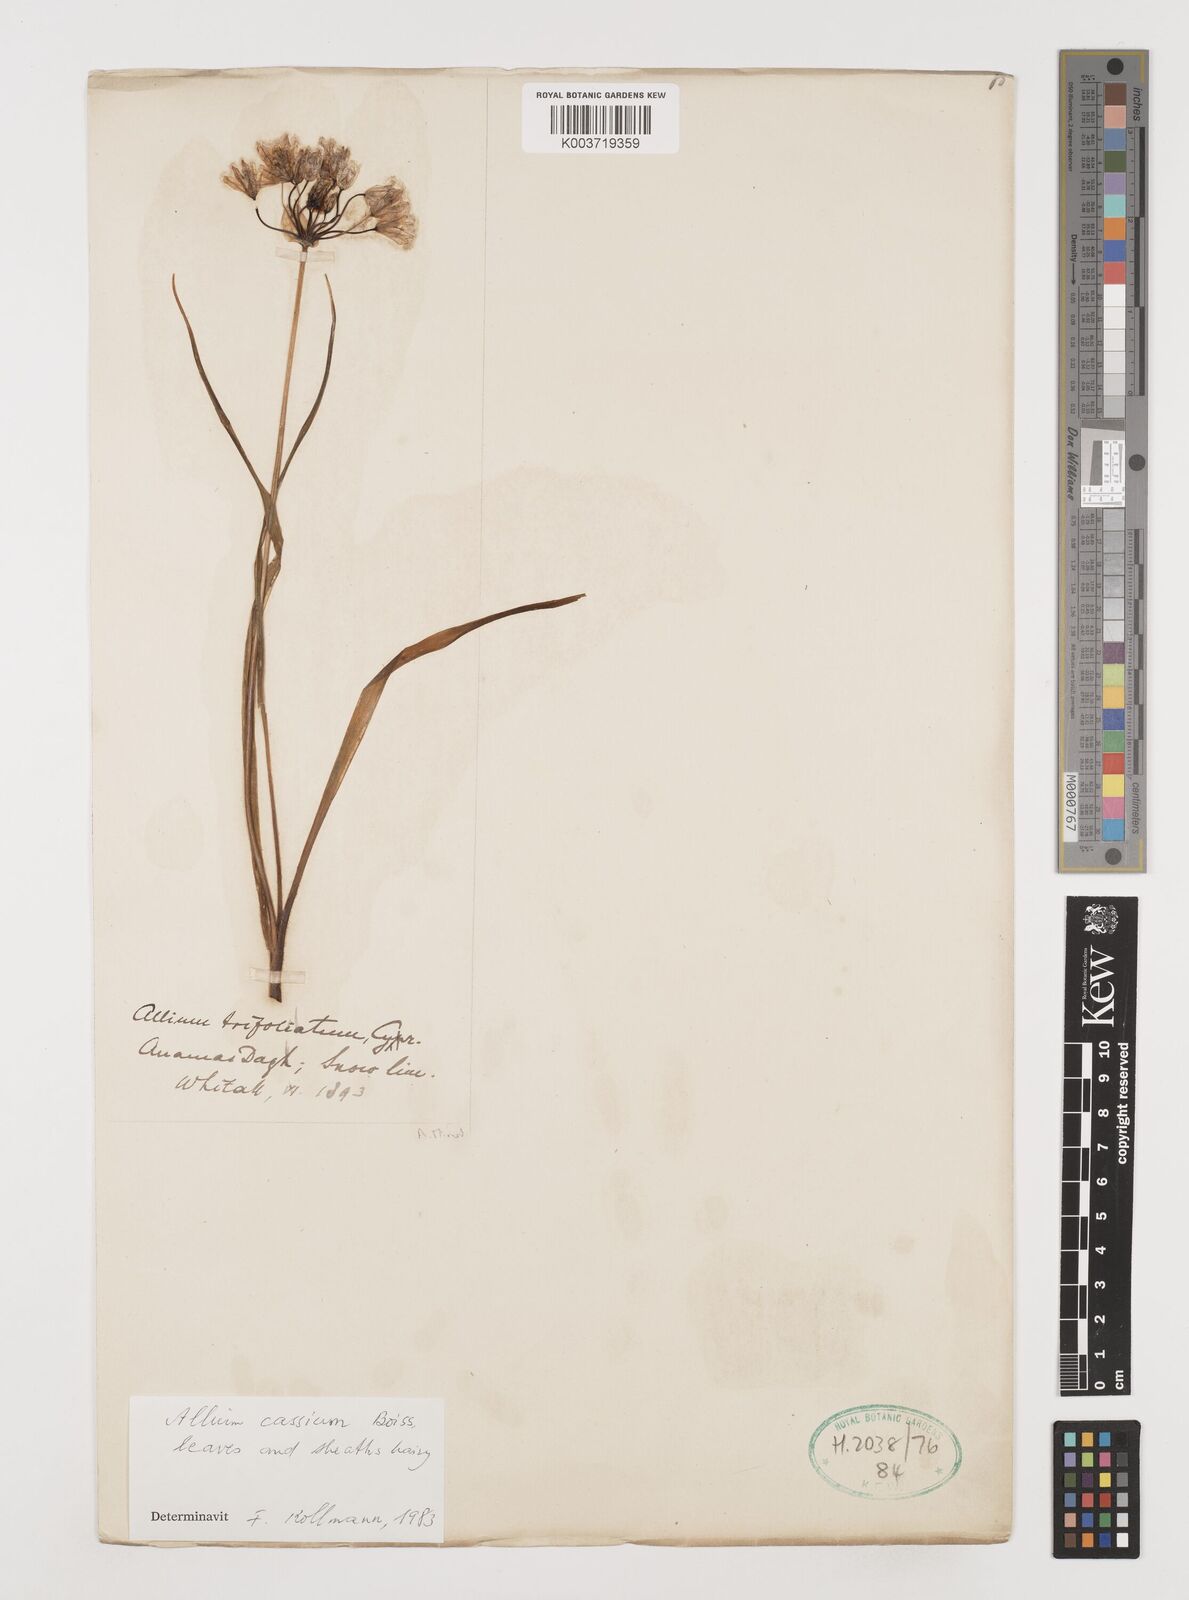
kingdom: Plantae
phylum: Tracheophyta
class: Liliopsida
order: Asparagales
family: Amaryllidaceae
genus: Allium
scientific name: Allium cassium
